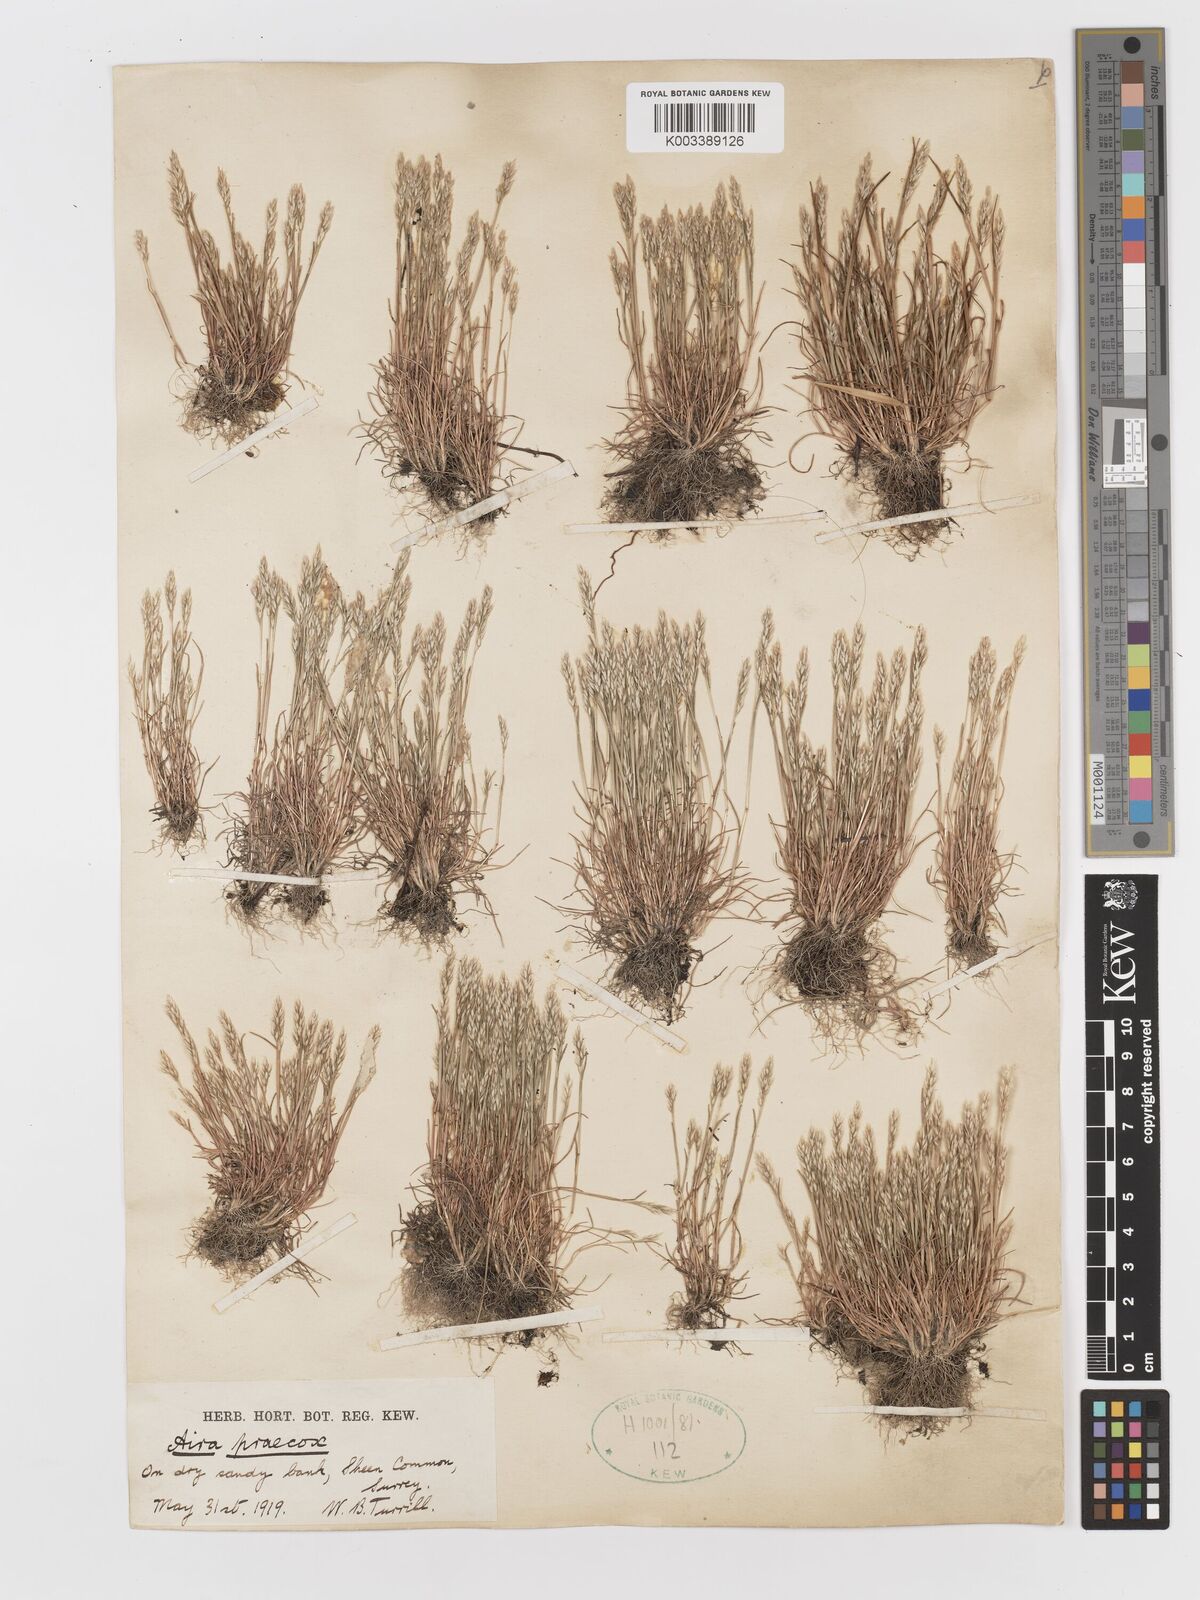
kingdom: Plantae
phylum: Tracheophyta
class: Liliopsida
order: Poales
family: Poaceae
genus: Aira
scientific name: Aira praecox
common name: Early hair-grass
